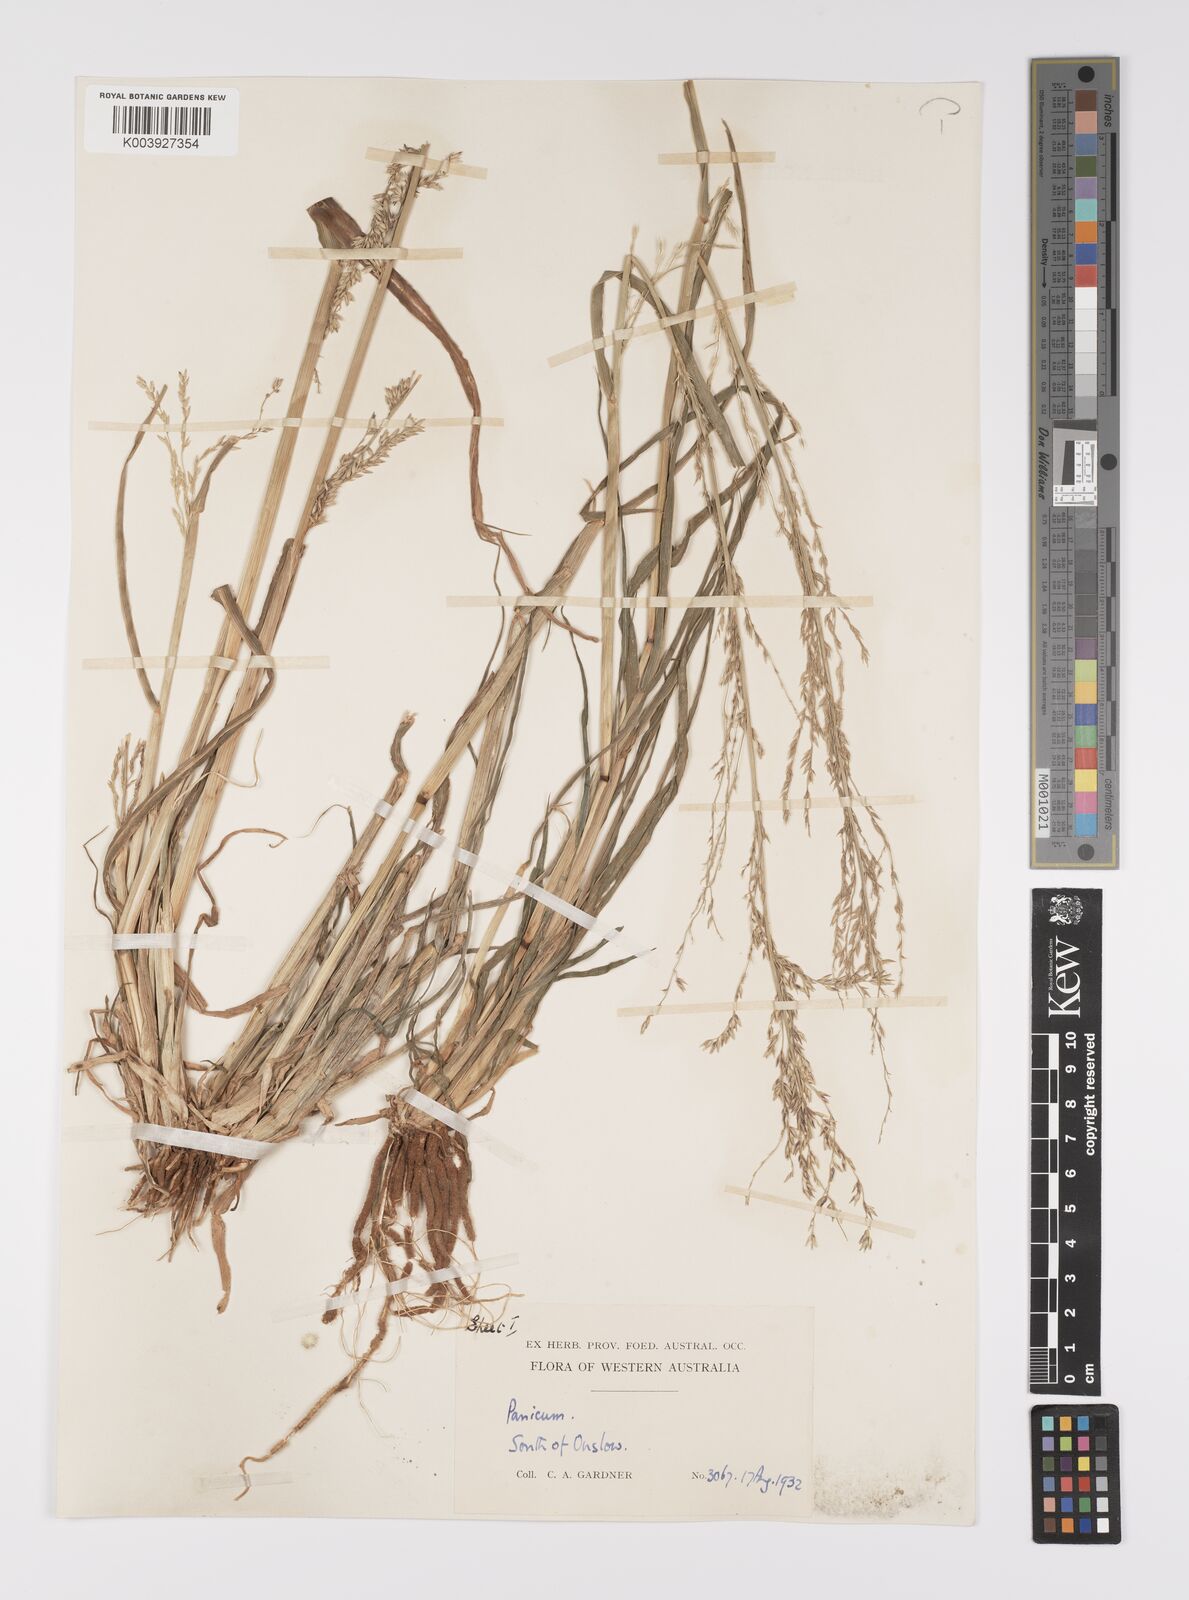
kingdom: Plantae
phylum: Tracheophyta
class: Liliopsida
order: Poales
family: Poaceae
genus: Whiteochloa
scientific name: Whiteochloa cymbiformis
